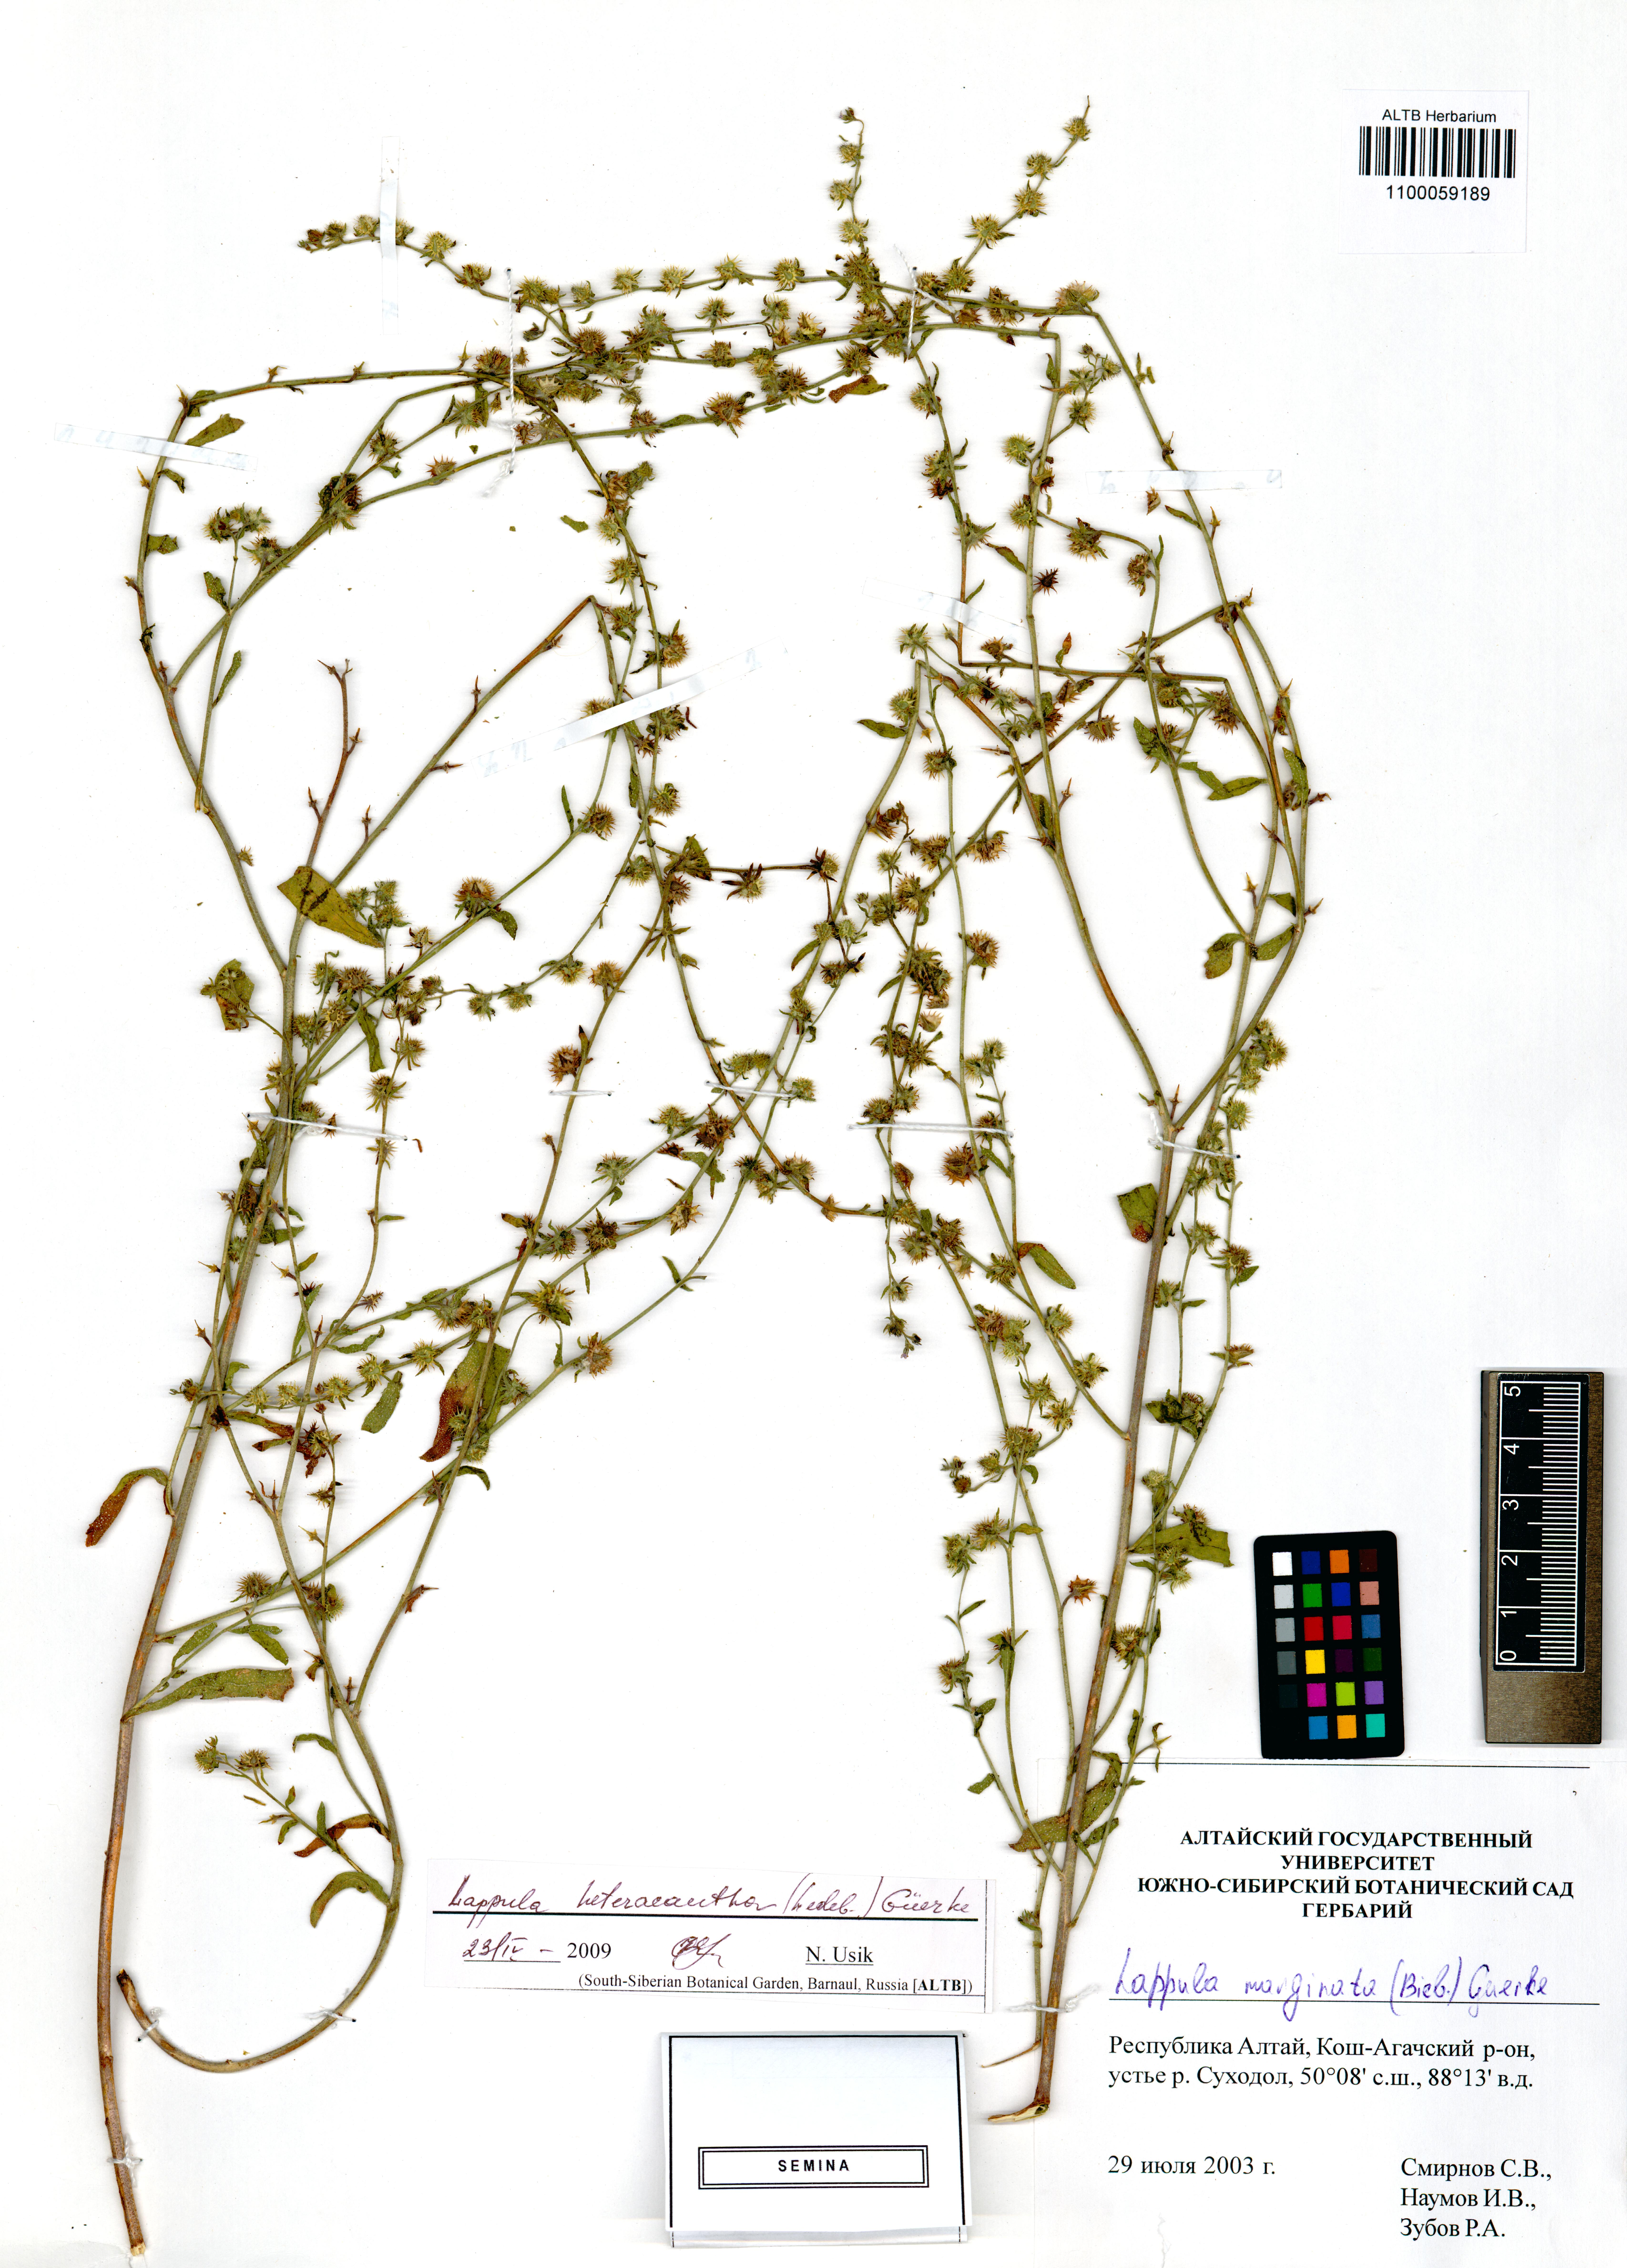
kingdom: Plantae
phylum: Tracheophyta
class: Magnoliopsida
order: Boraginales
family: Boraginaceae
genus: Lappula
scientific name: Lappula heteracantha
